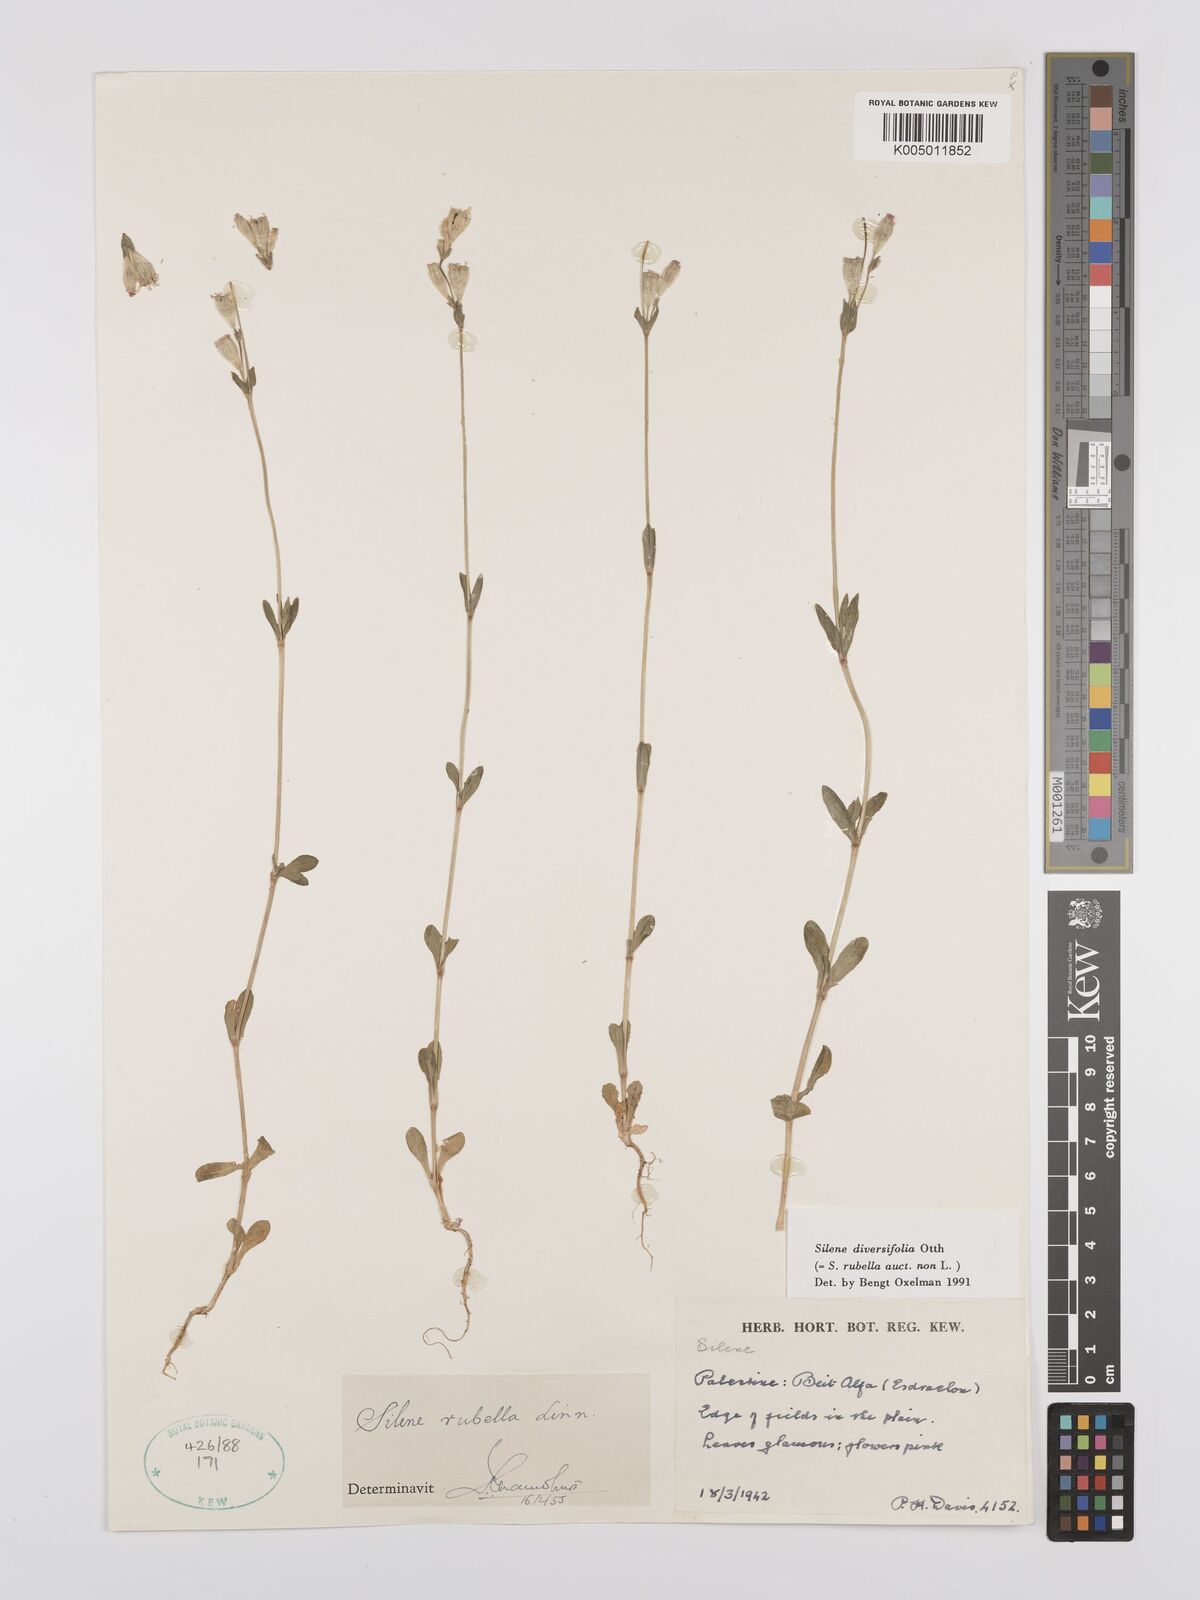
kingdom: Plantae
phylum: Tracheophyta
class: Magnoliopsida
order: Caryophyllales
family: Caryophyllaceae
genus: Silene
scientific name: Silene rubella
